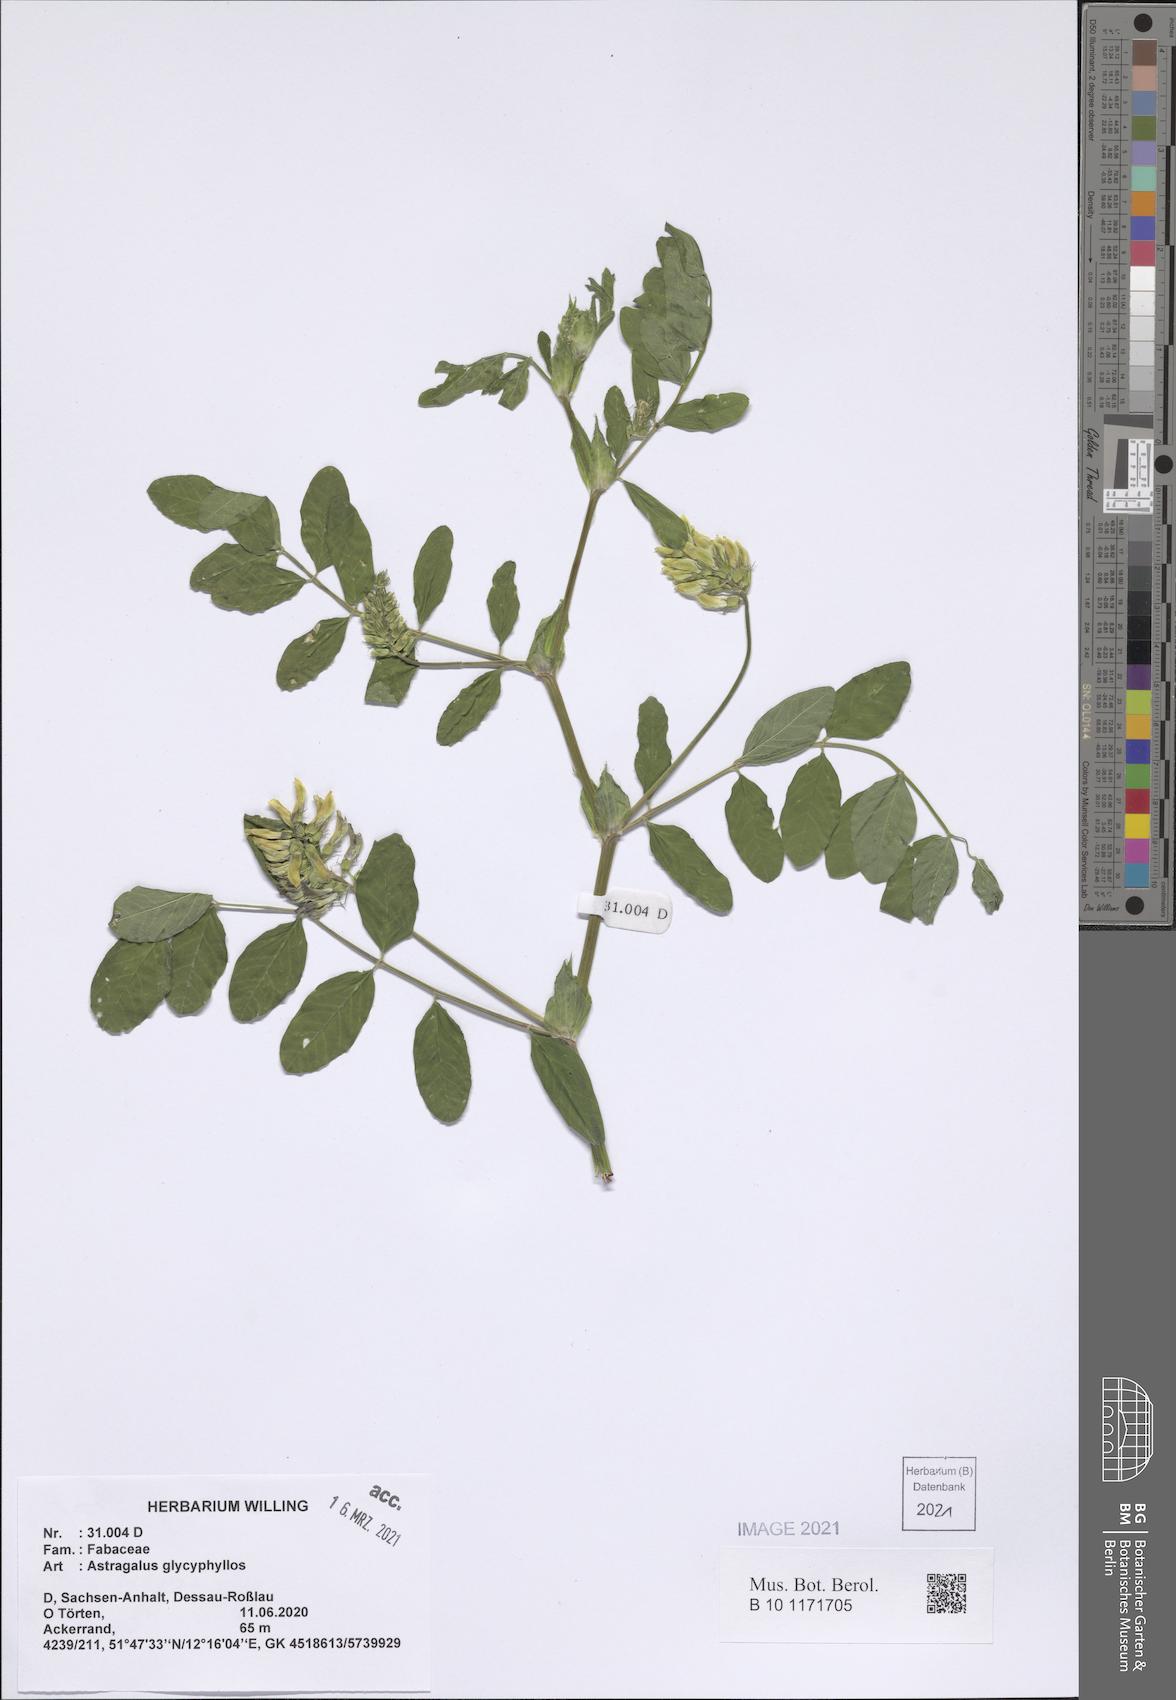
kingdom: Plantae
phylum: Tracheophyta
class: Magnoliopsida
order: Fabales
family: Fabaceae
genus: Astragalus
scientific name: Astragalus glycyphyllos
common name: Wild liquorice
